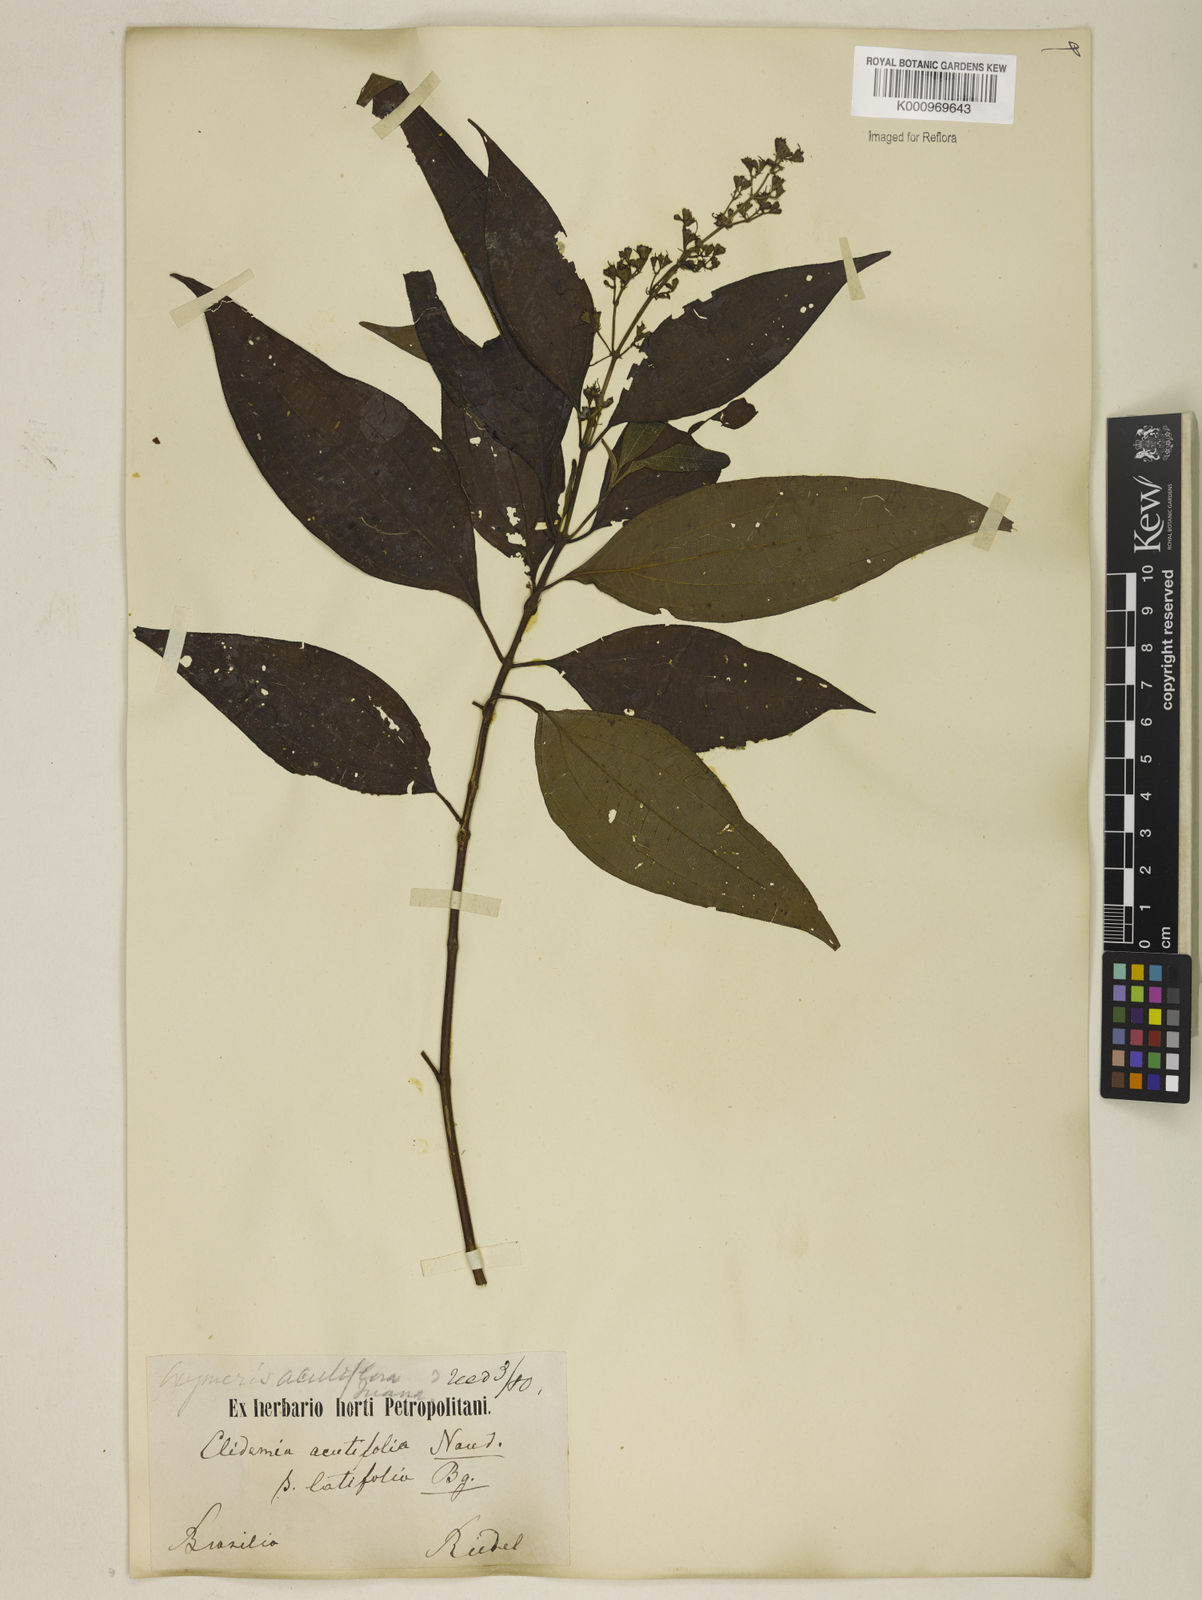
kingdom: Plantae
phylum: Tracheophyta
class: Magnoliopsida
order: Myrtales
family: Melastomataceae
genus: Miconia
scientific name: Miconia acutiflora
